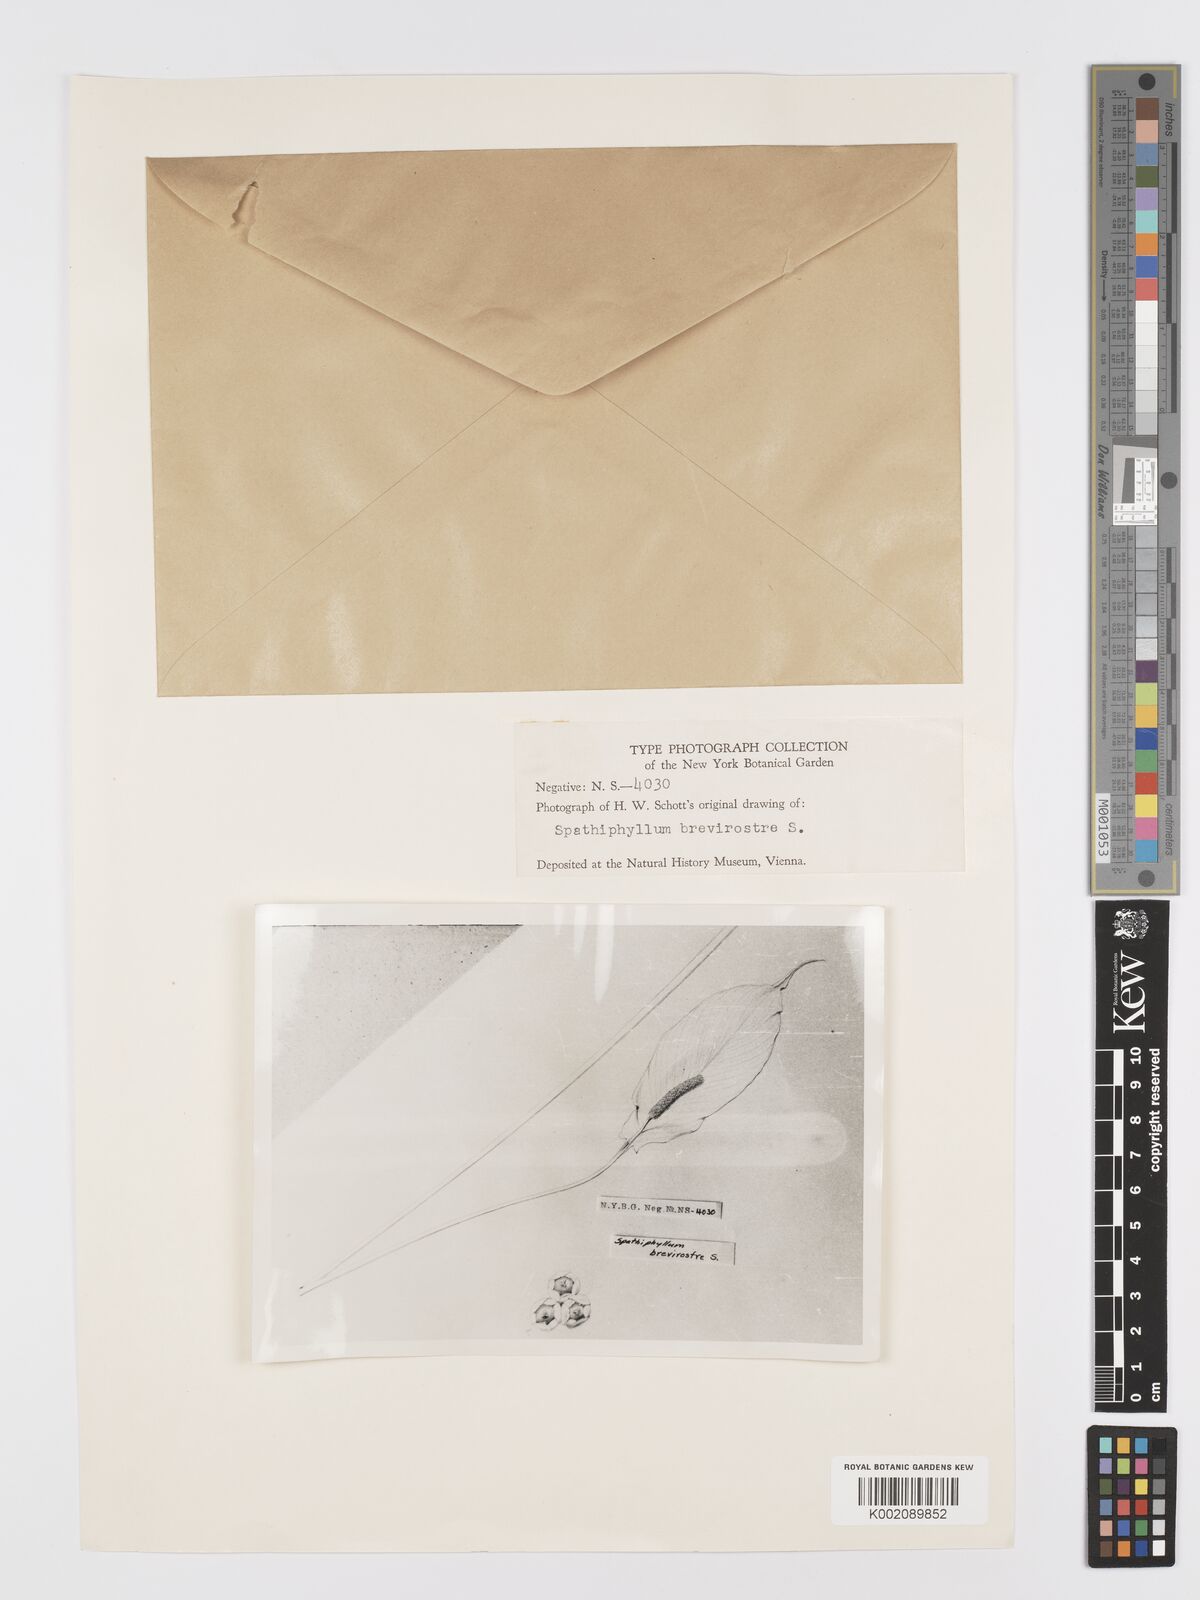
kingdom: Plantae
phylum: Tracheophyta
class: Liliopsida
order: Alismatales
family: Araceae
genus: Spathiphyllum
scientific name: Spathiphyllum brevirostre
